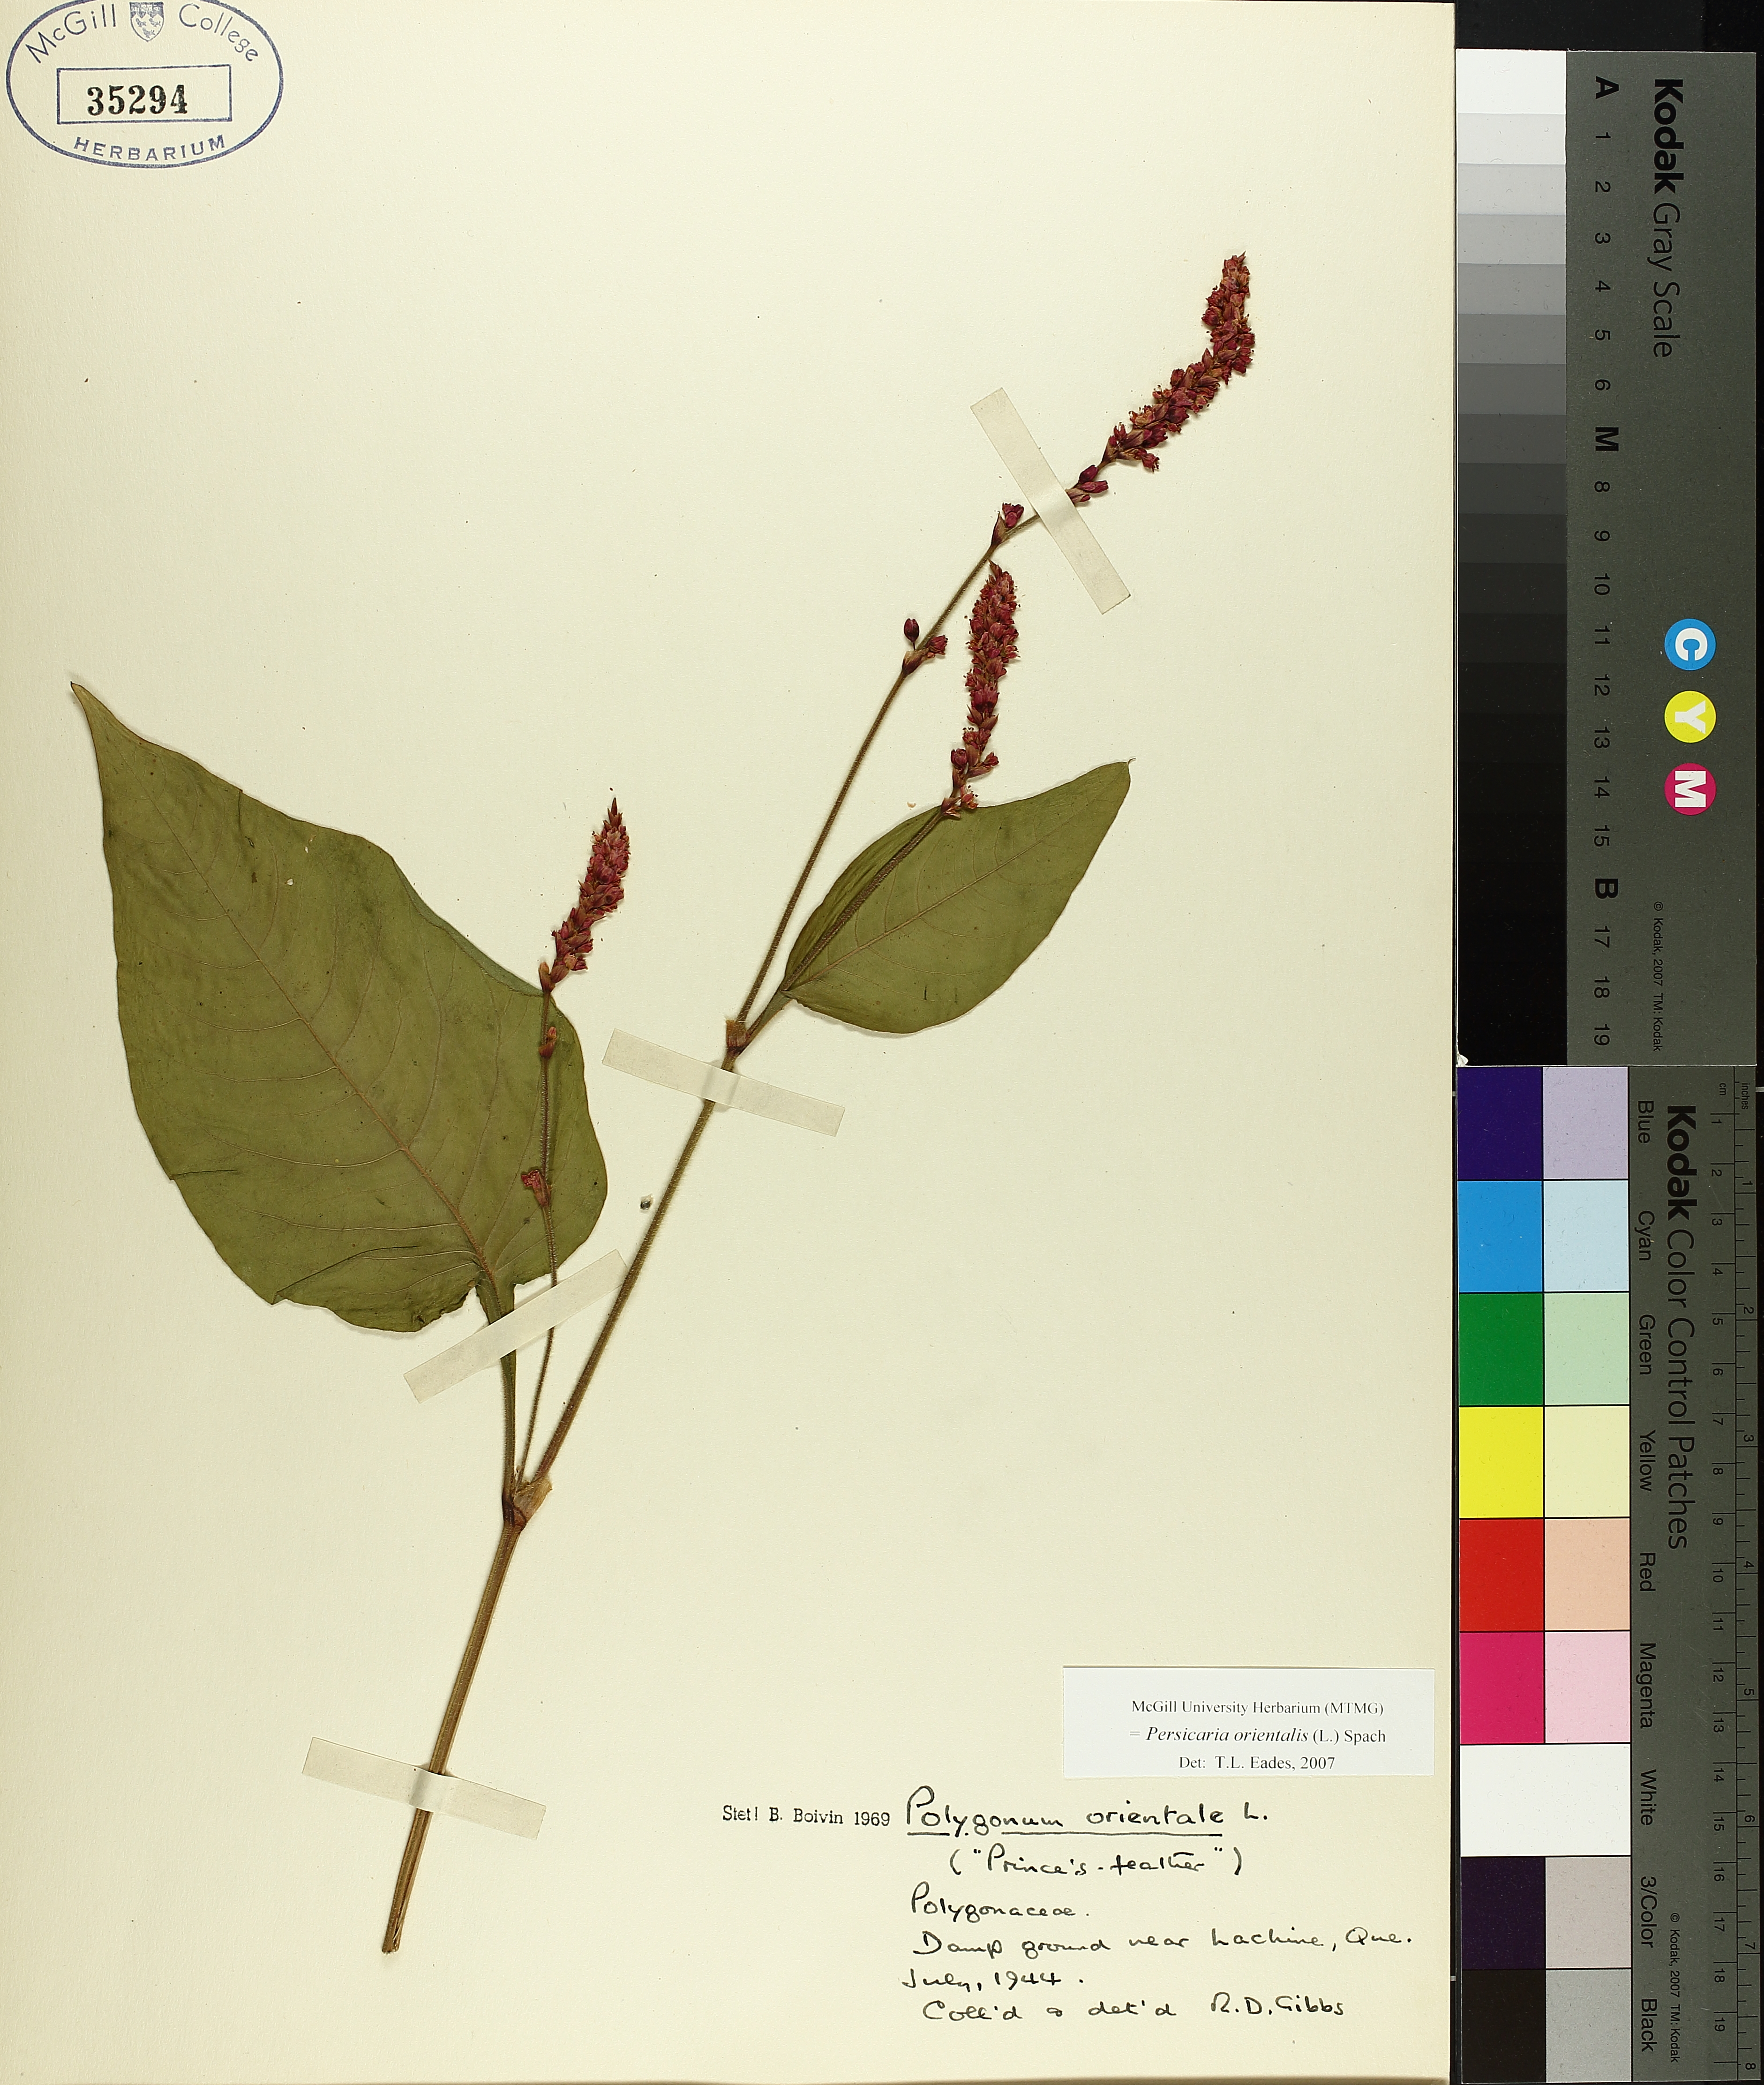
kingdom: Plantae
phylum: Tracheophyta
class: Magnoliopsida
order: Caryophyllales
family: Polygonaceae
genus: Persicaria
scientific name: Persicaria orientalis
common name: Kiss-me-over-the-garden-gate
